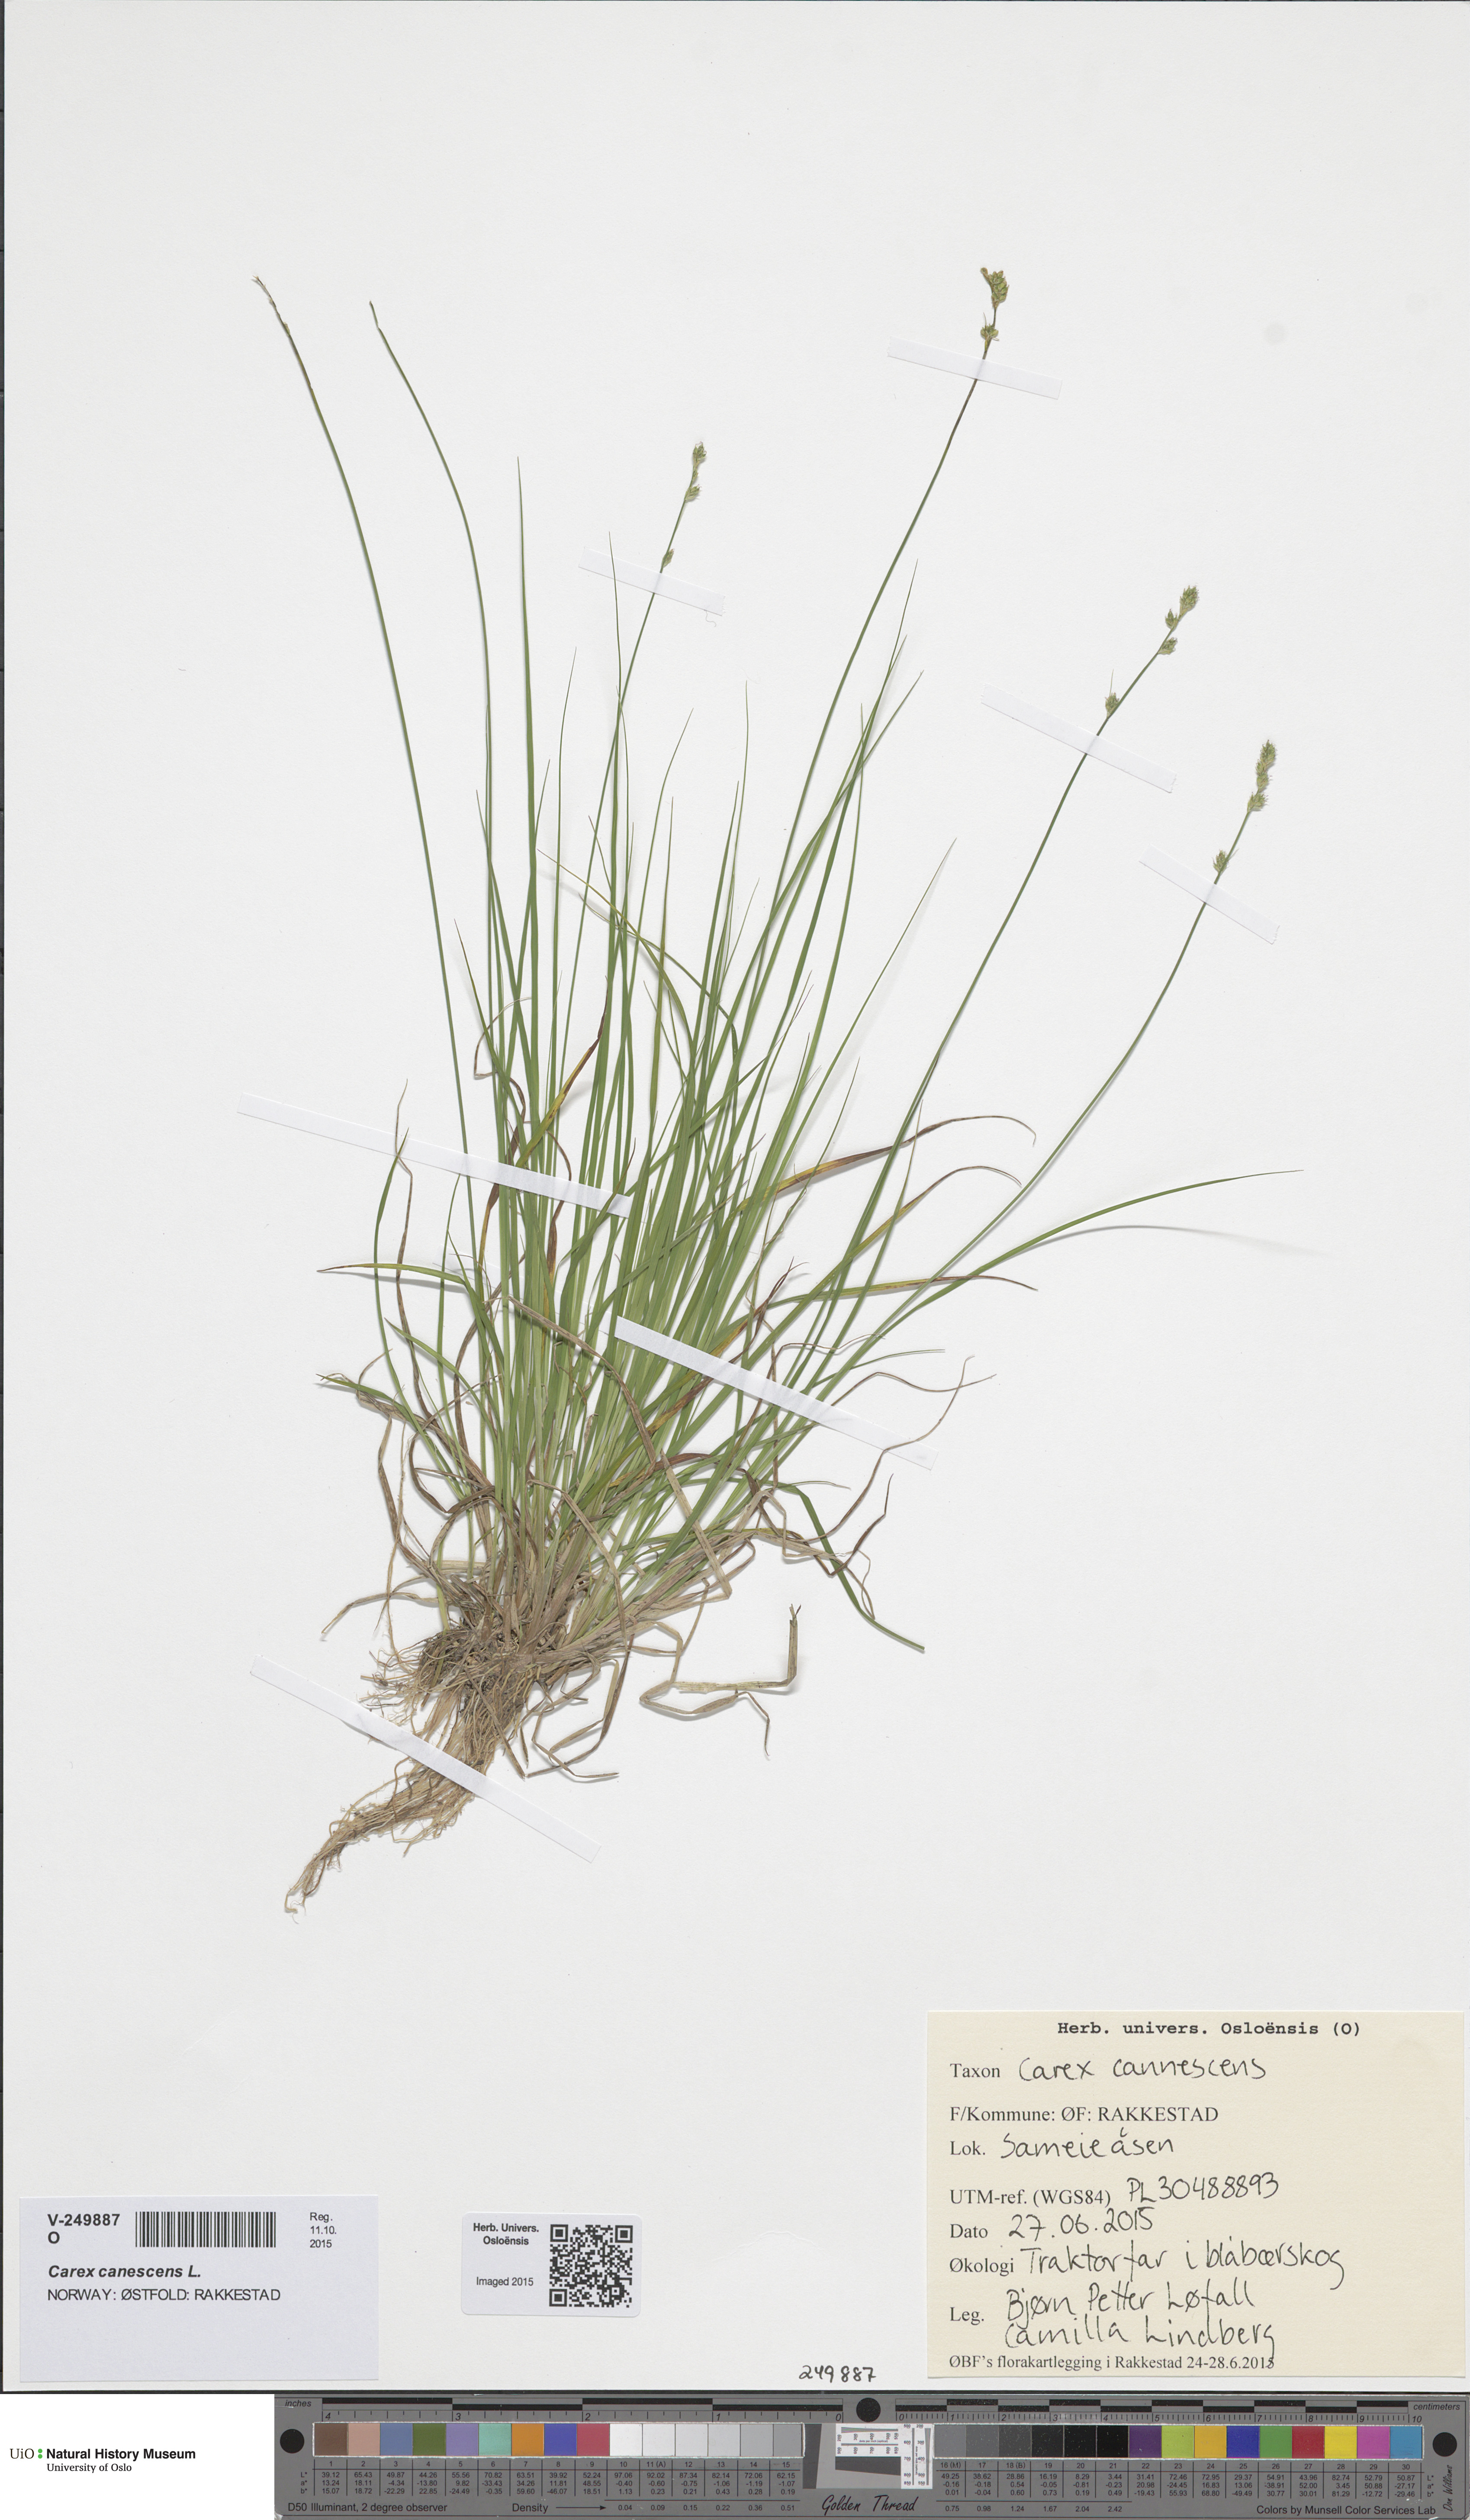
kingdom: Plantae
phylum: Tracheophyta
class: Liliopsida
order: Poales
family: Cyperaceae
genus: Carex
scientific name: Carex canescens
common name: White sedge
